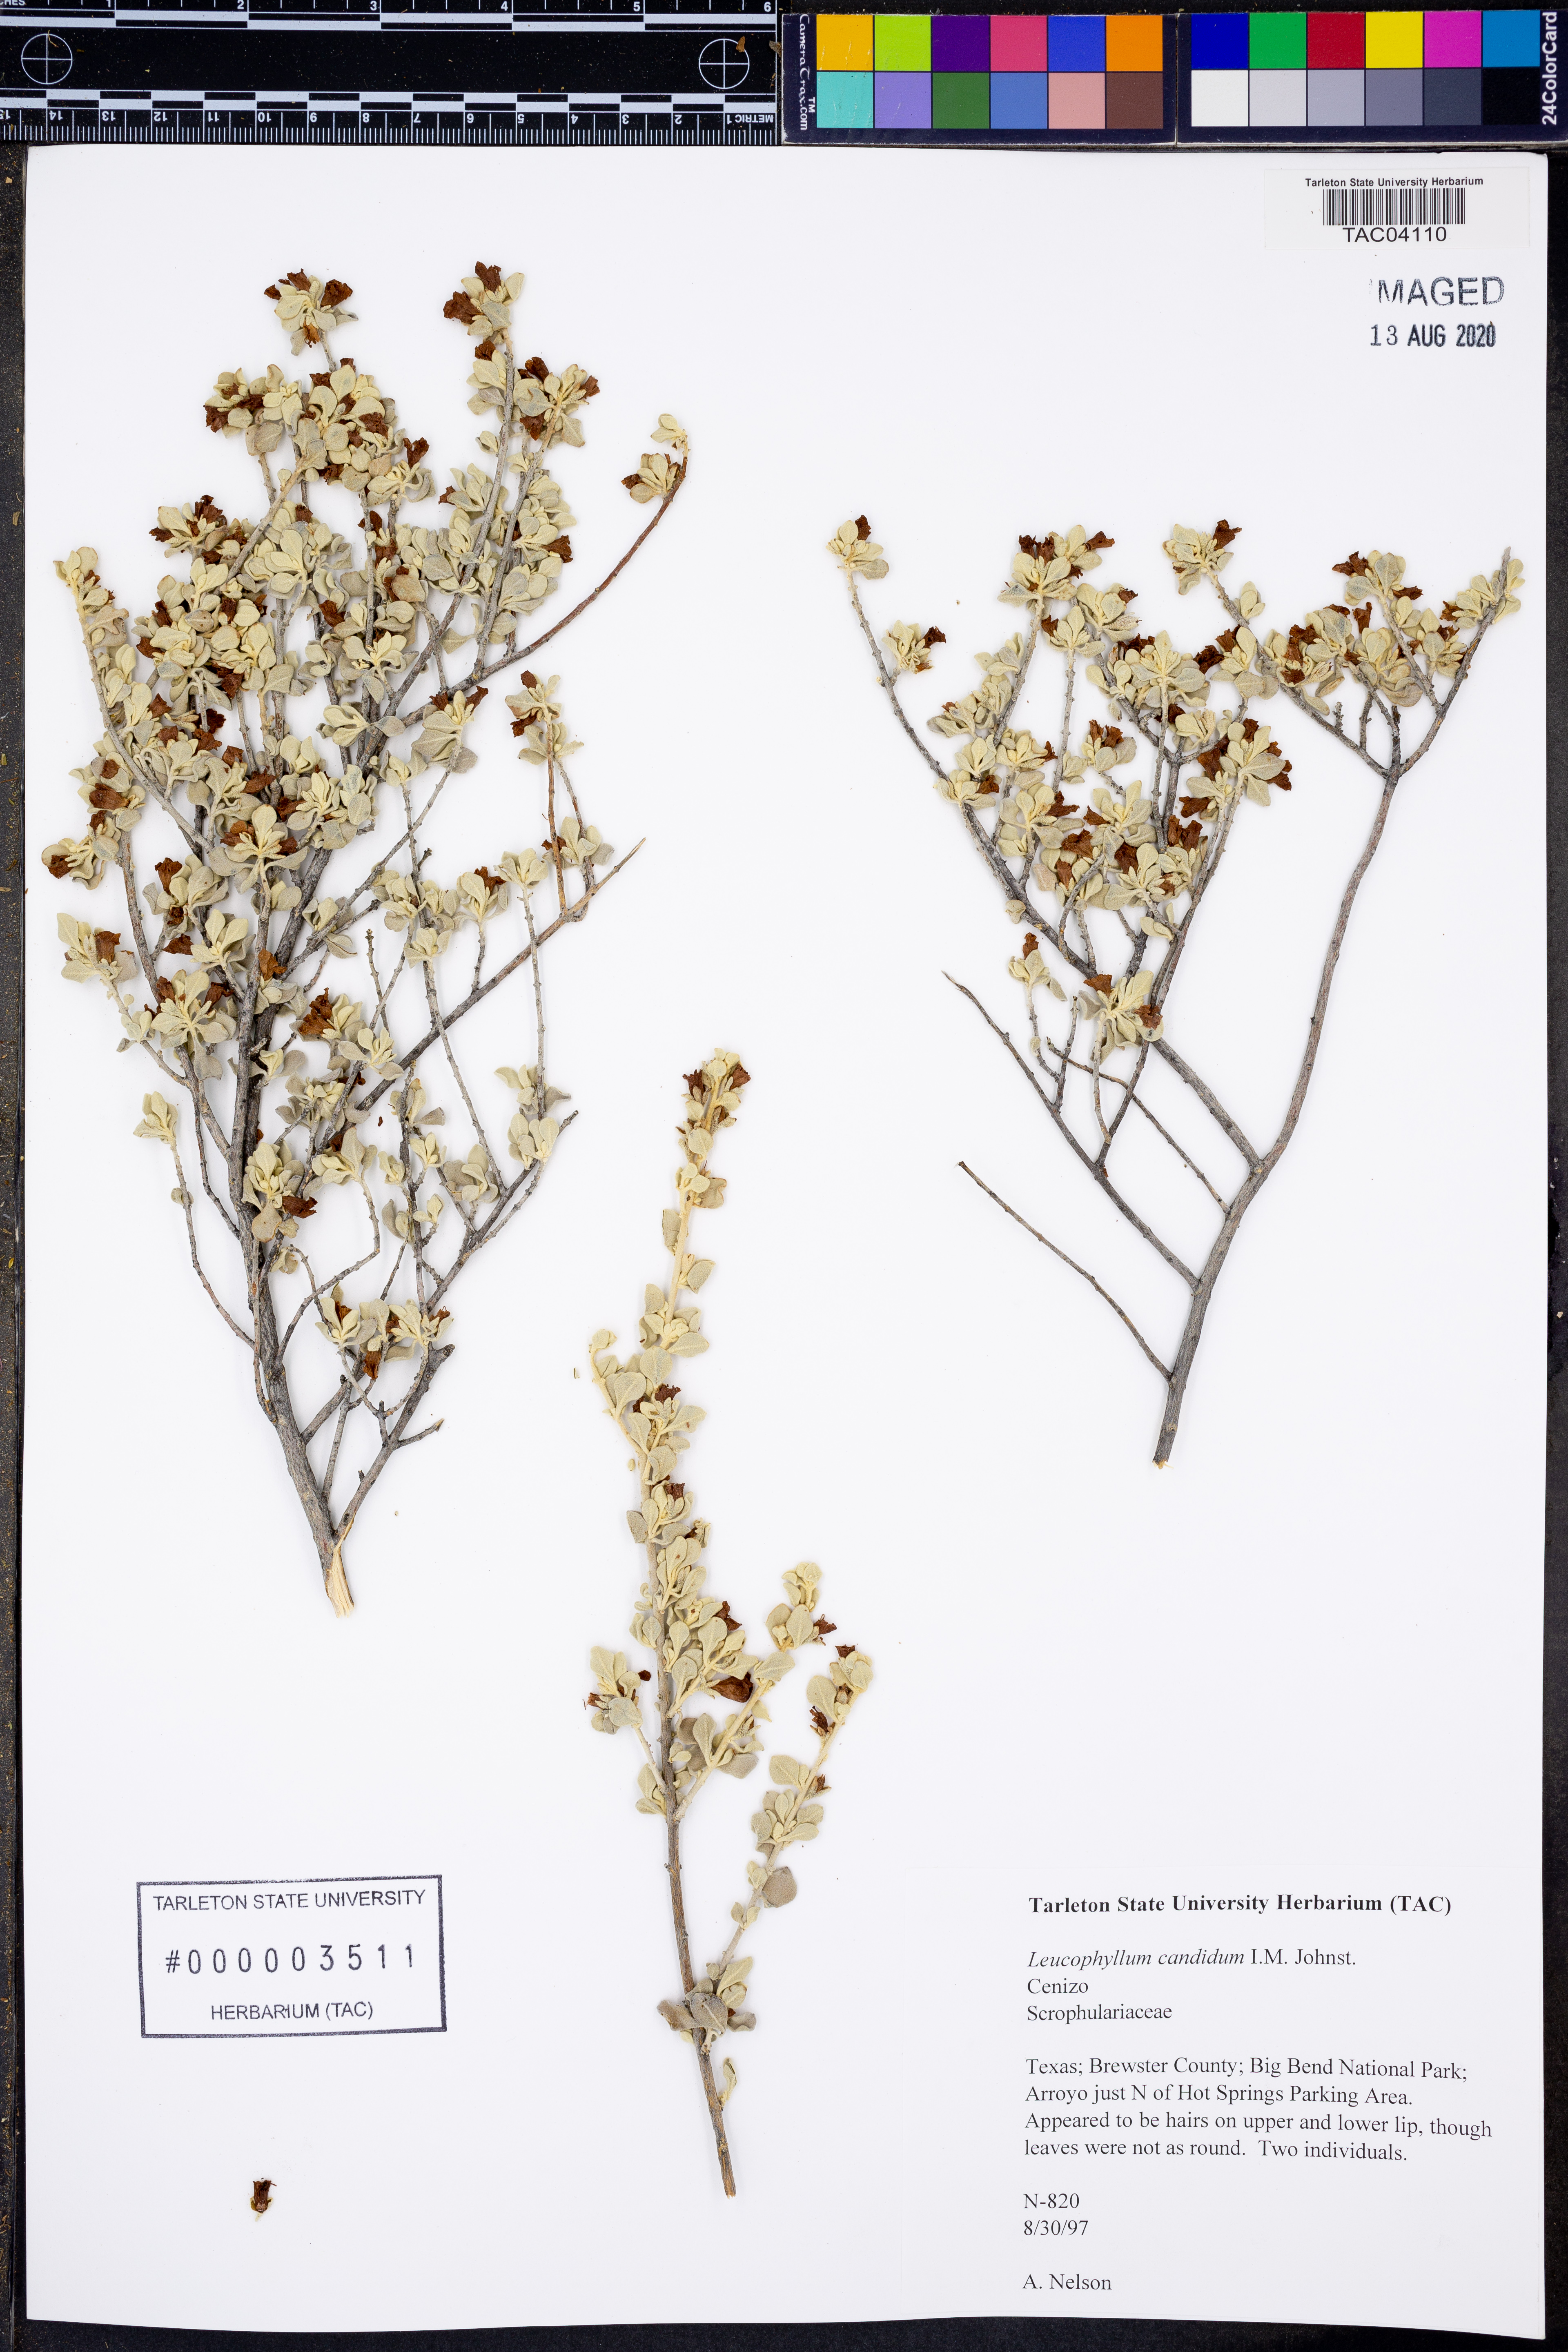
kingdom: Plantae
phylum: Tracheophyta
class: Magnoliopsida
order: Lamiales
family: Scrophulariaceae
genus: Leucophyllum
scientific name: Leucophyllum candidum
